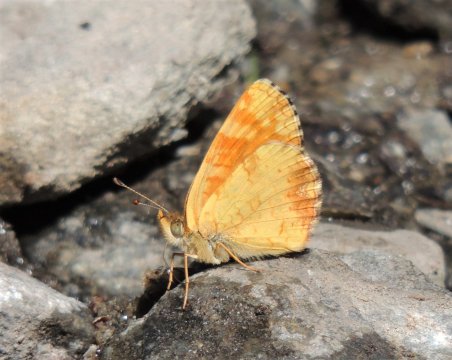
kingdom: Animalia
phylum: Arthropoda
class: Insecta
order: Lepidoptera
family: Nymphalidae
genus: Phyciodes
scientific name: Phyciodes tharos
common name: Field Crescent
